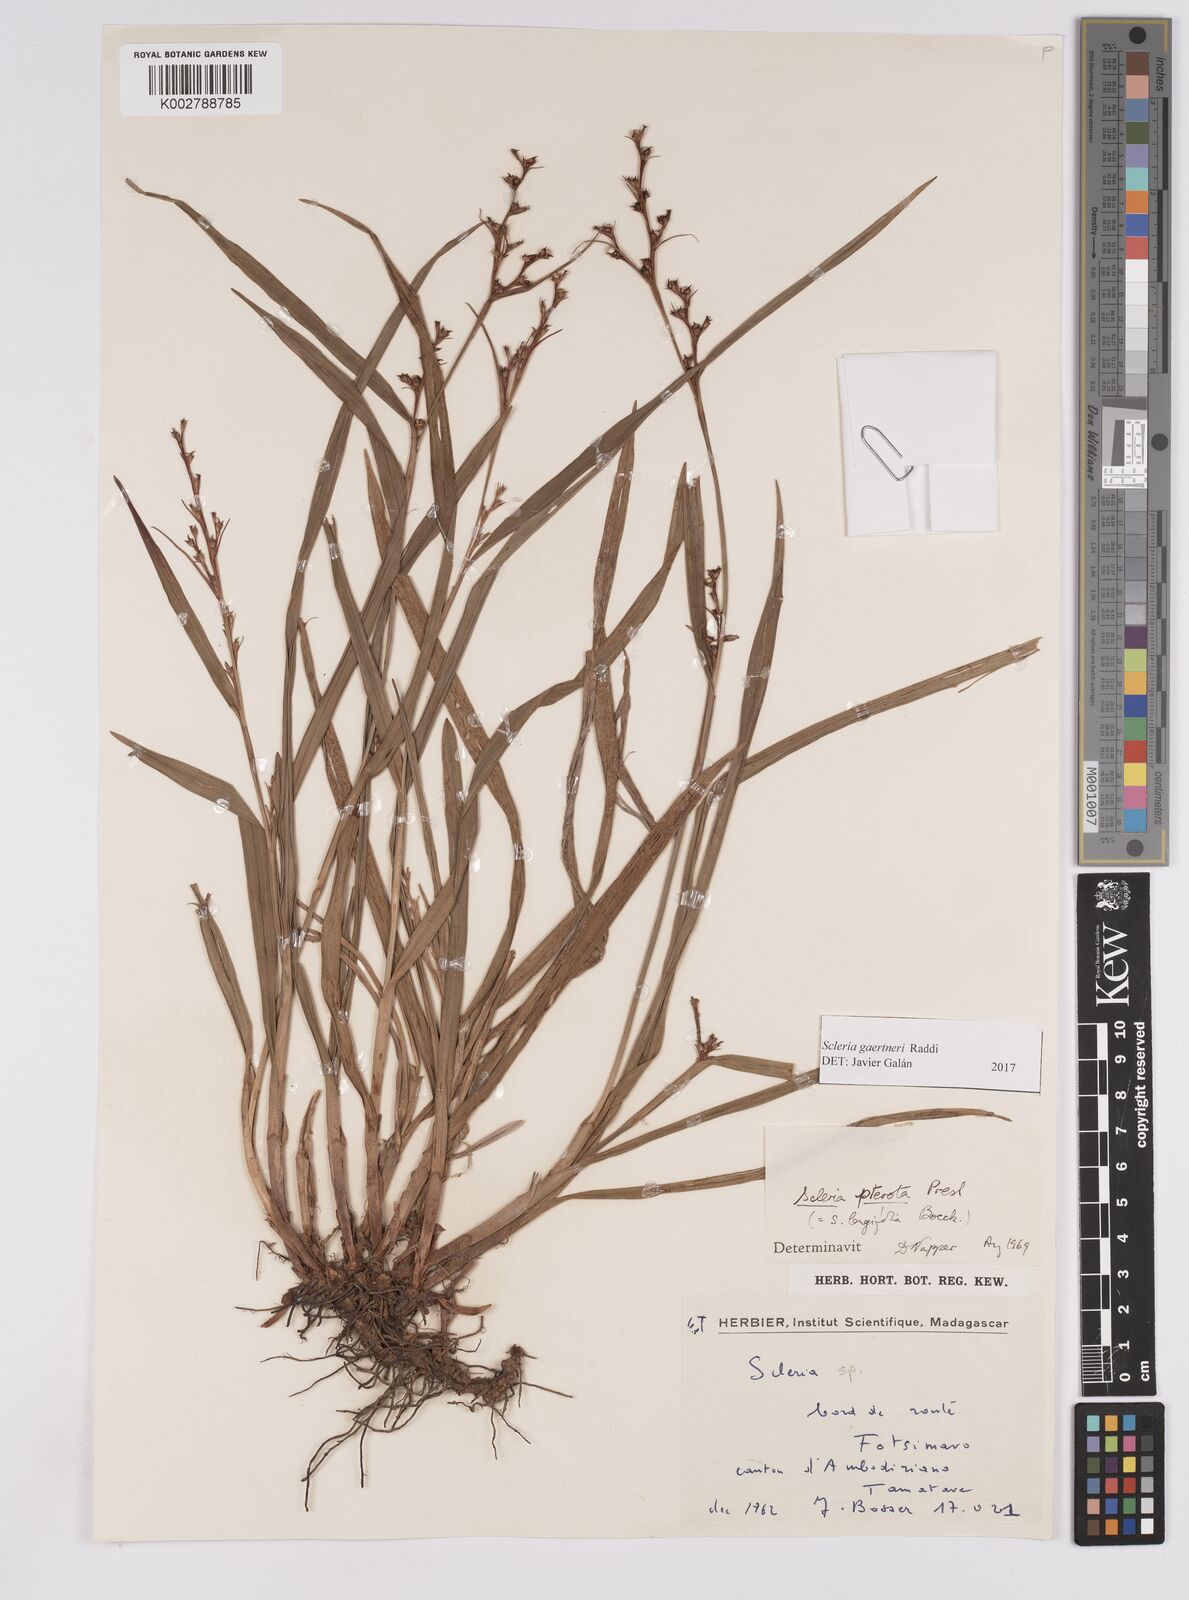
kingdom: Plantae
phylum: Tracheophyta
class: Liliopsida
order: Poales
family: Cyperaceae
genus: Scleria
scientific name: Scleria gaertneri
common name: Cortadera blanca
